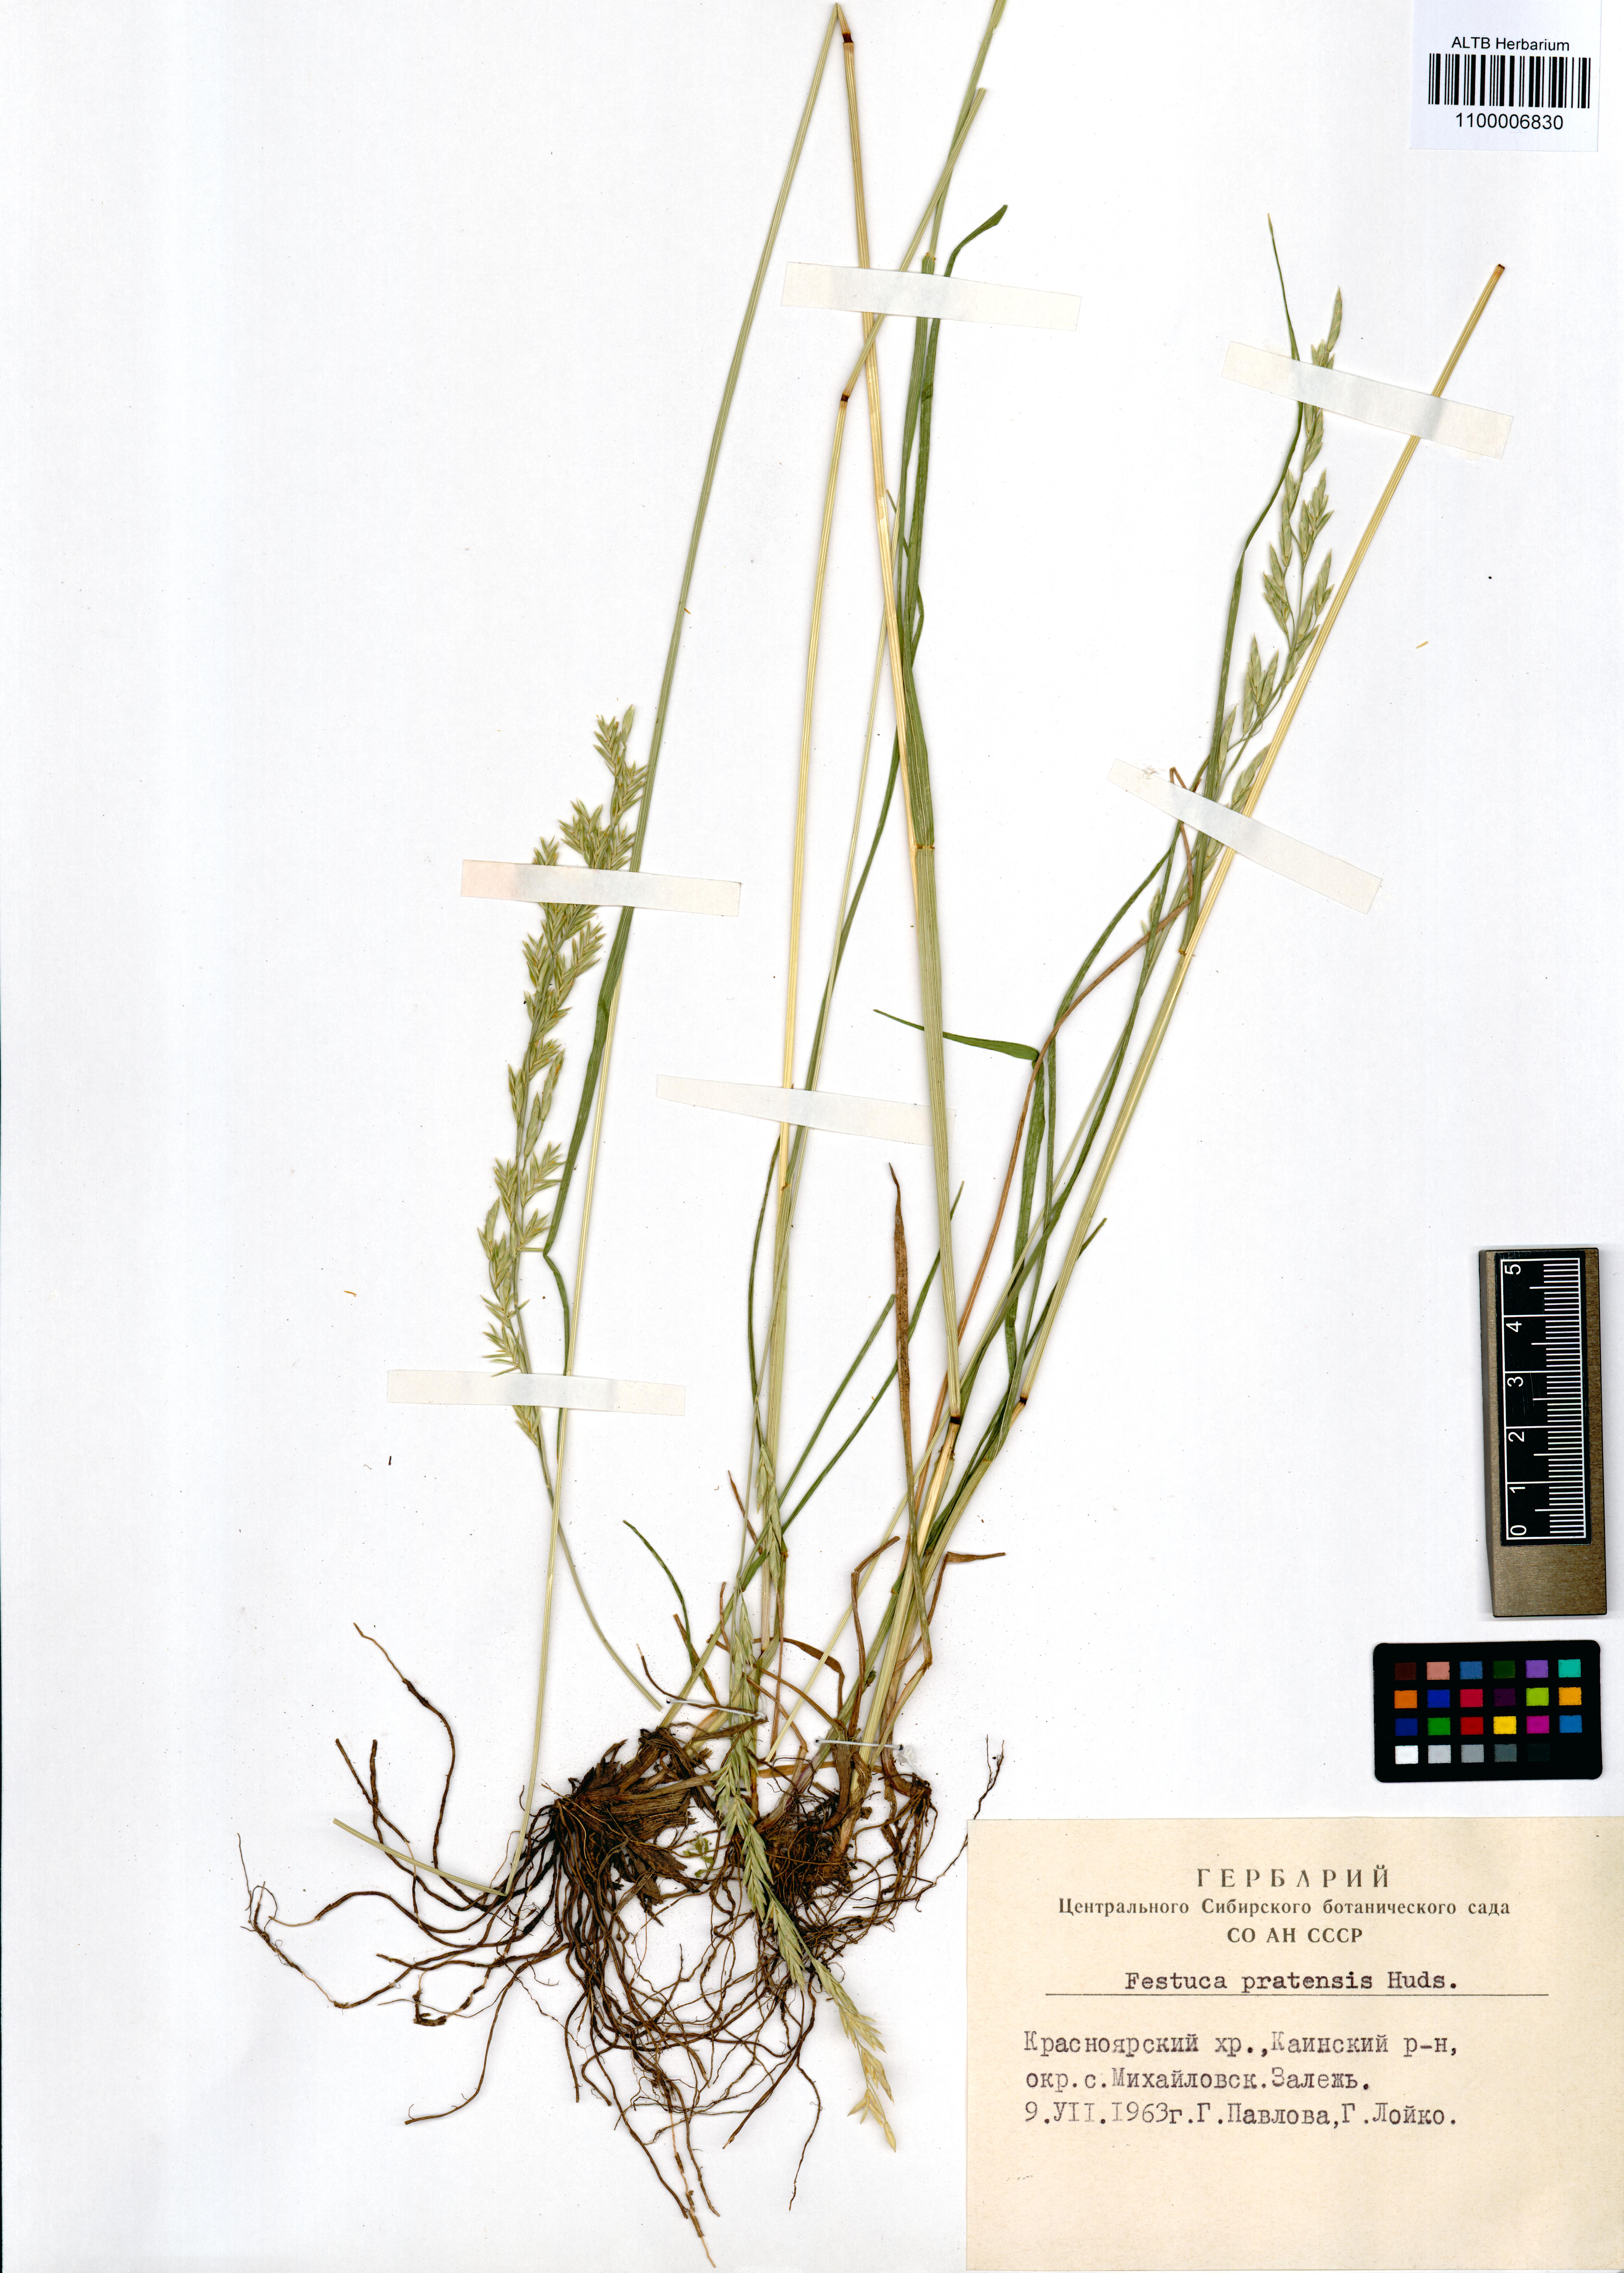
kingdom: Plantae
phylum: Tracheophyta
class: Liliopsida
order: Poales
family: Poaceae
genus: Lolium
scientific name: Lolium pratense
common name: Dover grass
